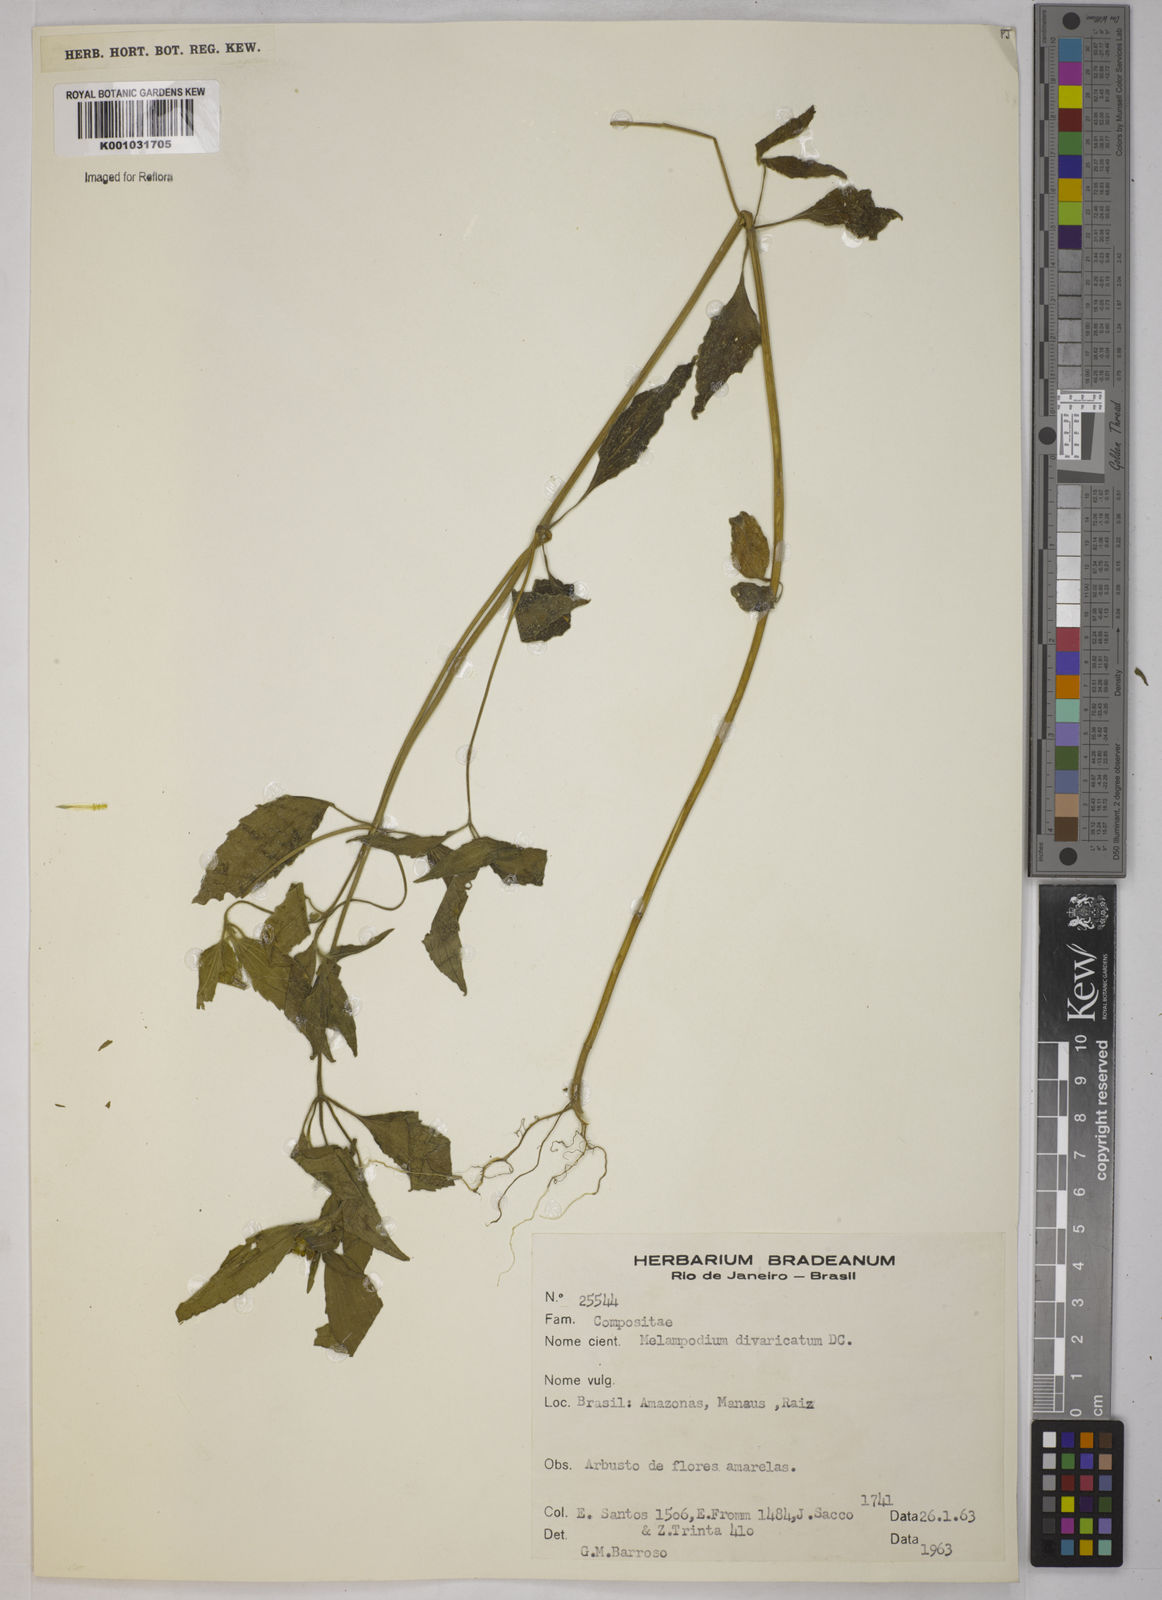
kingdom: Plantae
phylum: Tracheophyta
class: Magnoliopsida
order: Asterales
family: Asteraceae
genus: Melampodium
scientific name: Melampodium divaricatum
